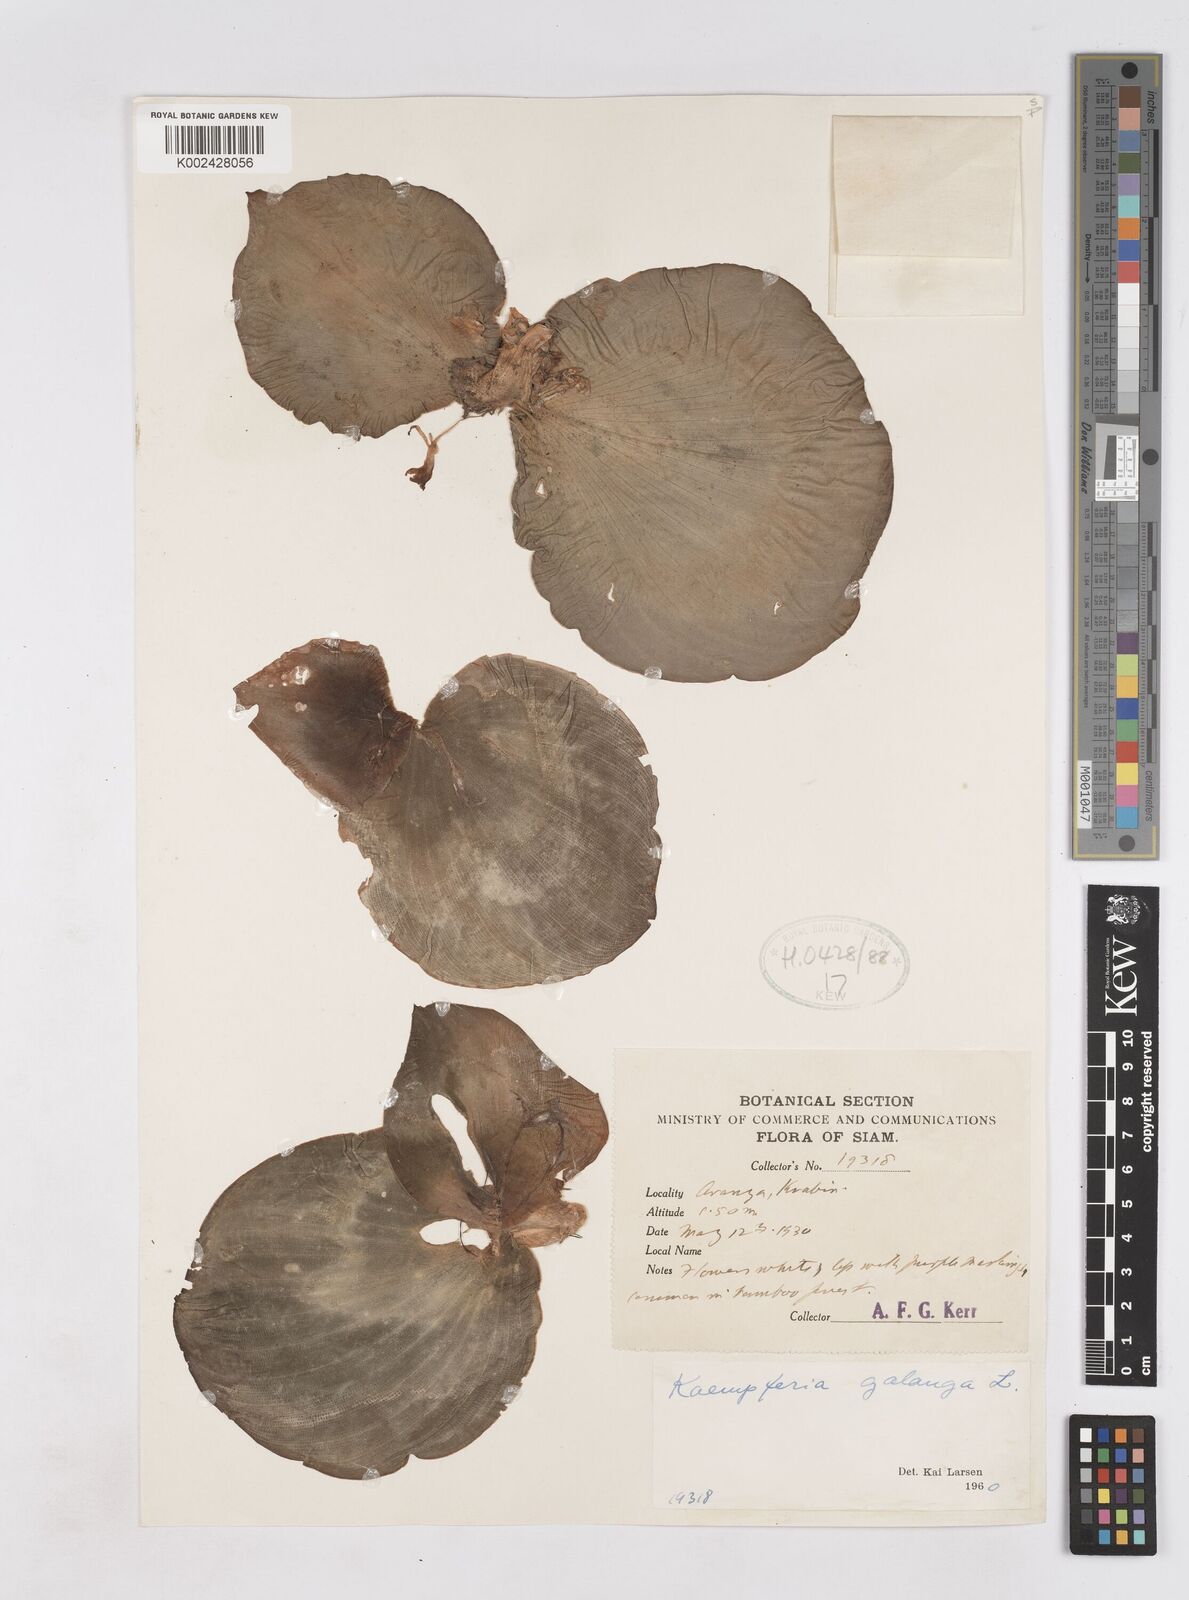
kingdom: Plantae
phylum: Tracheophyta
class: Liliopsida
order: Zingiberales
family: Zingiberaceae
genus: Kaempferia
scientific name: Kaempferia galanga
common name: Aromatic ginger
